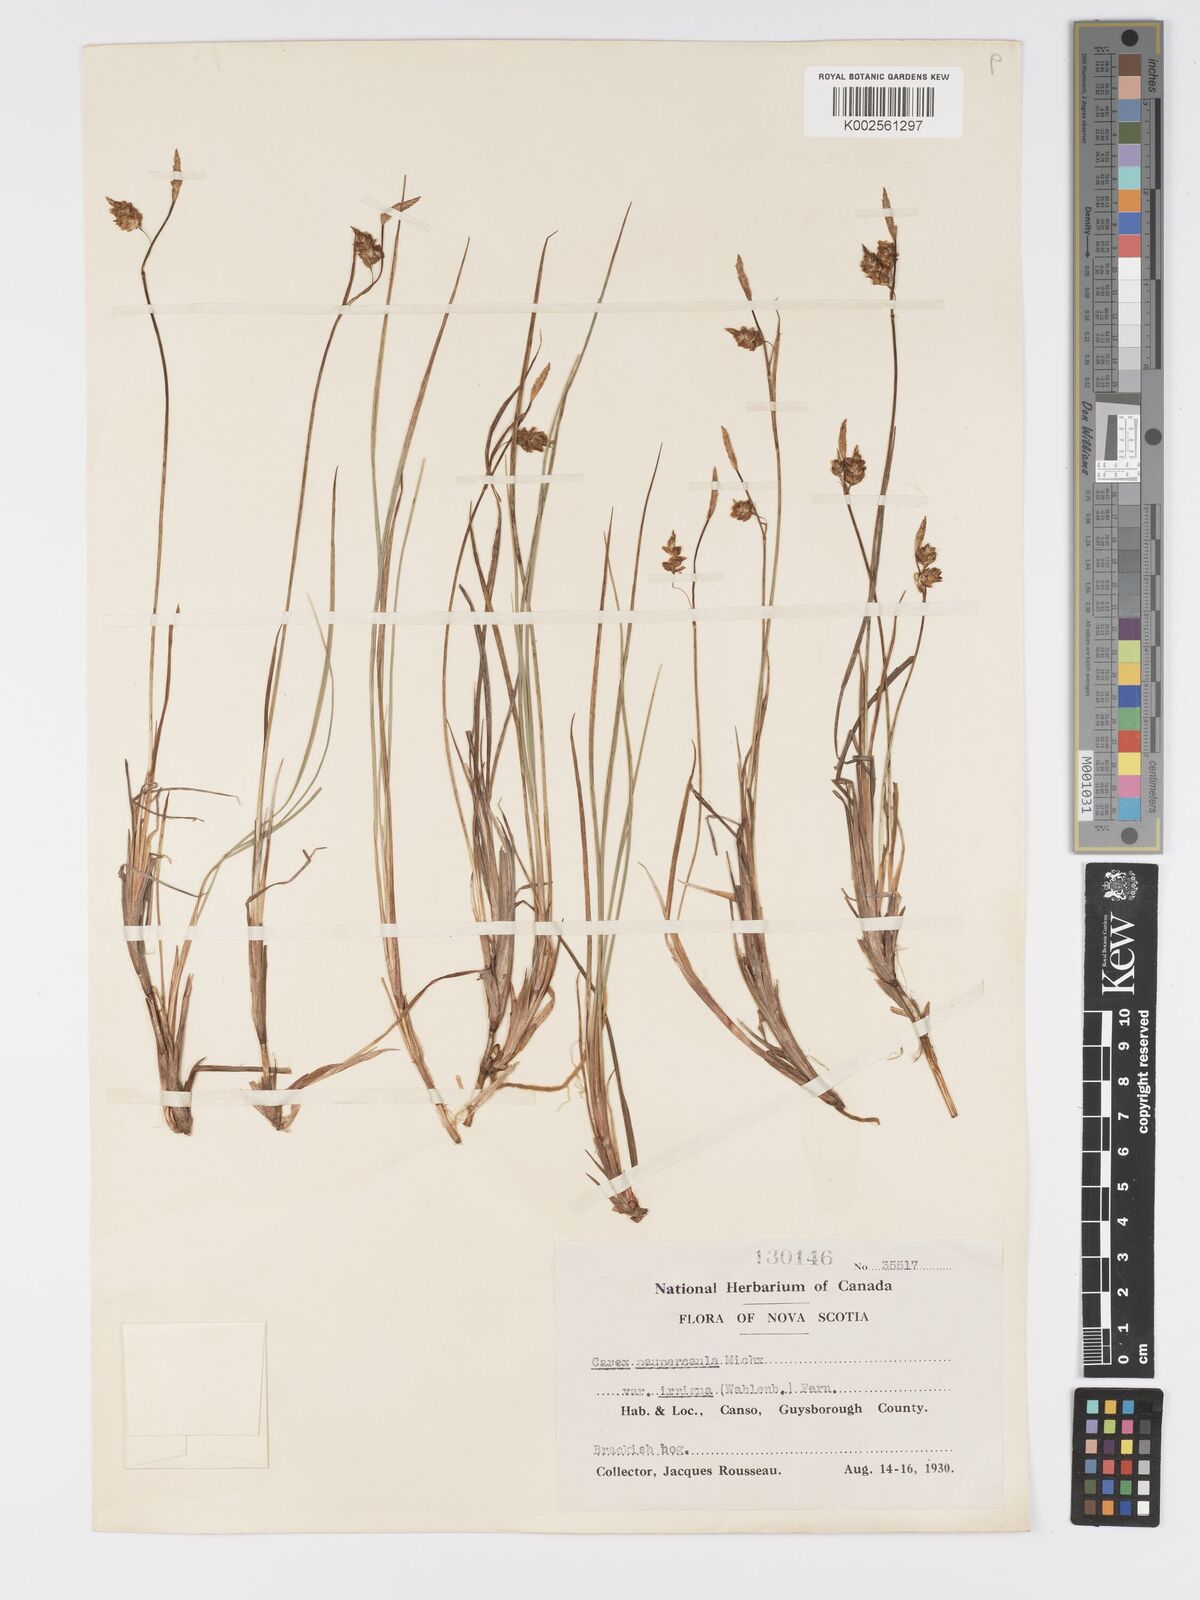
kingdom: Plantae
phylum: Tracheophyta
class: Liliopsida
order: Poales
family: Cyperaceae
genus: Carex
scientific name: Carex magellanica
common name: Bog sedge
